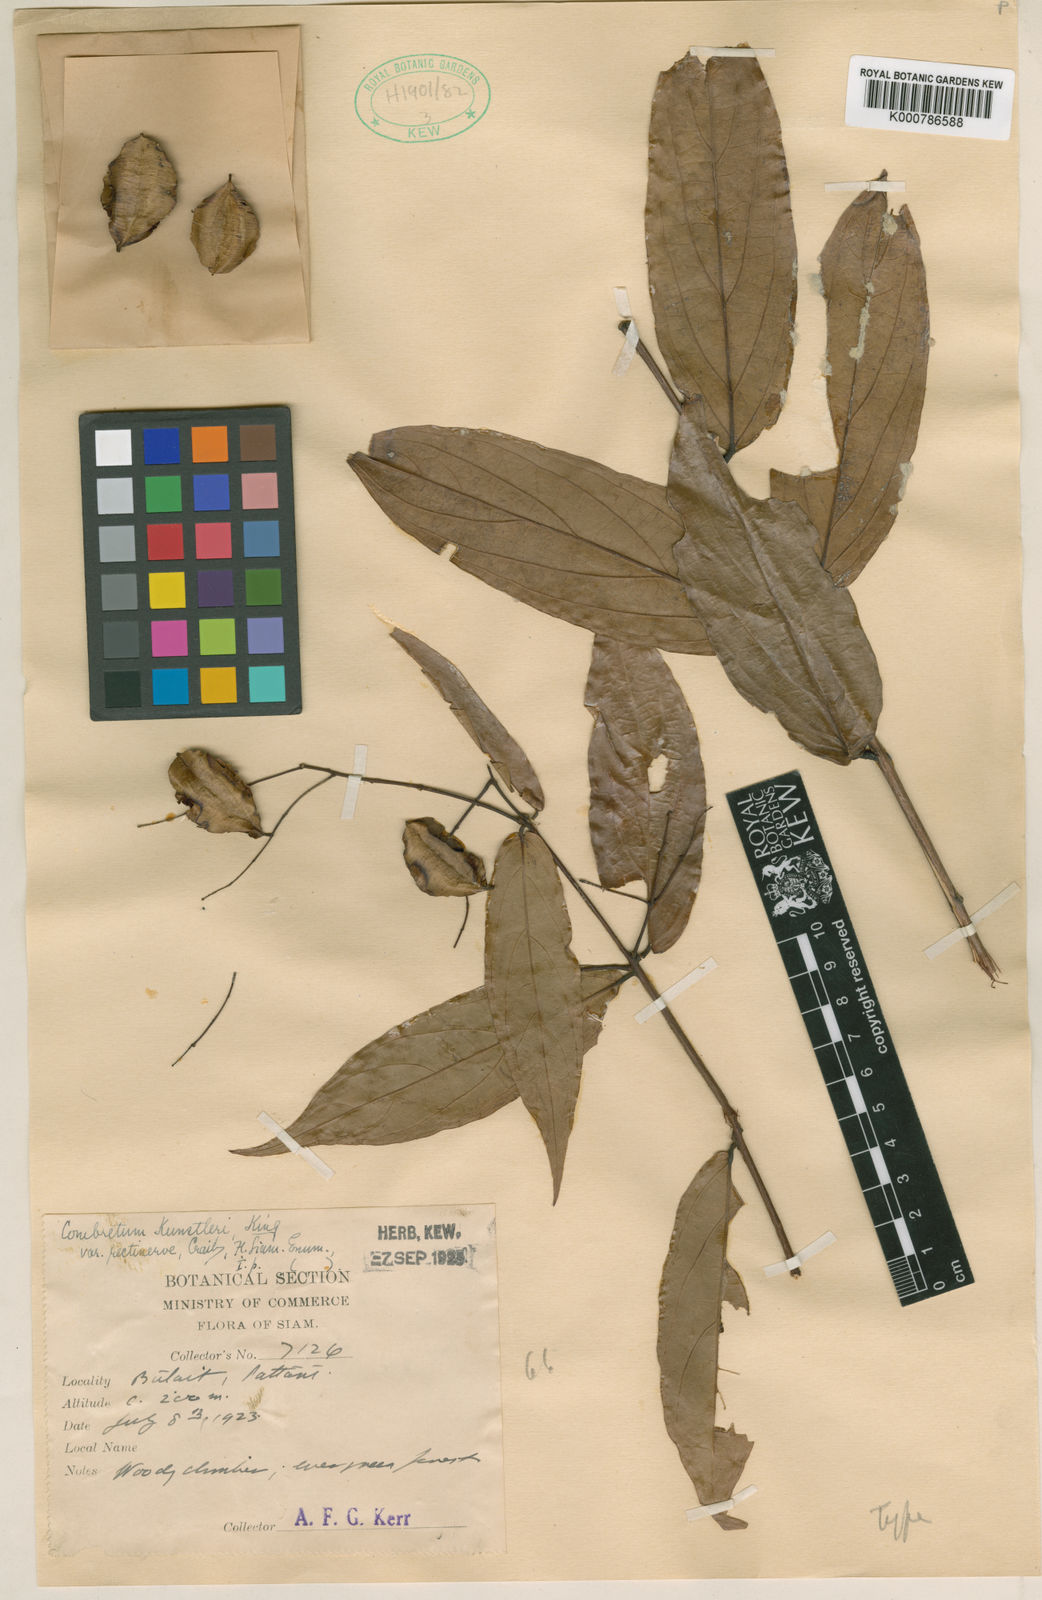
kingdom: Plantae
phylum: Tracheophyta
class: Magnoliopsida
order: Myrtales
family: Combretaceae
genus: Combretum
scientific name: Combretum nigrescens
